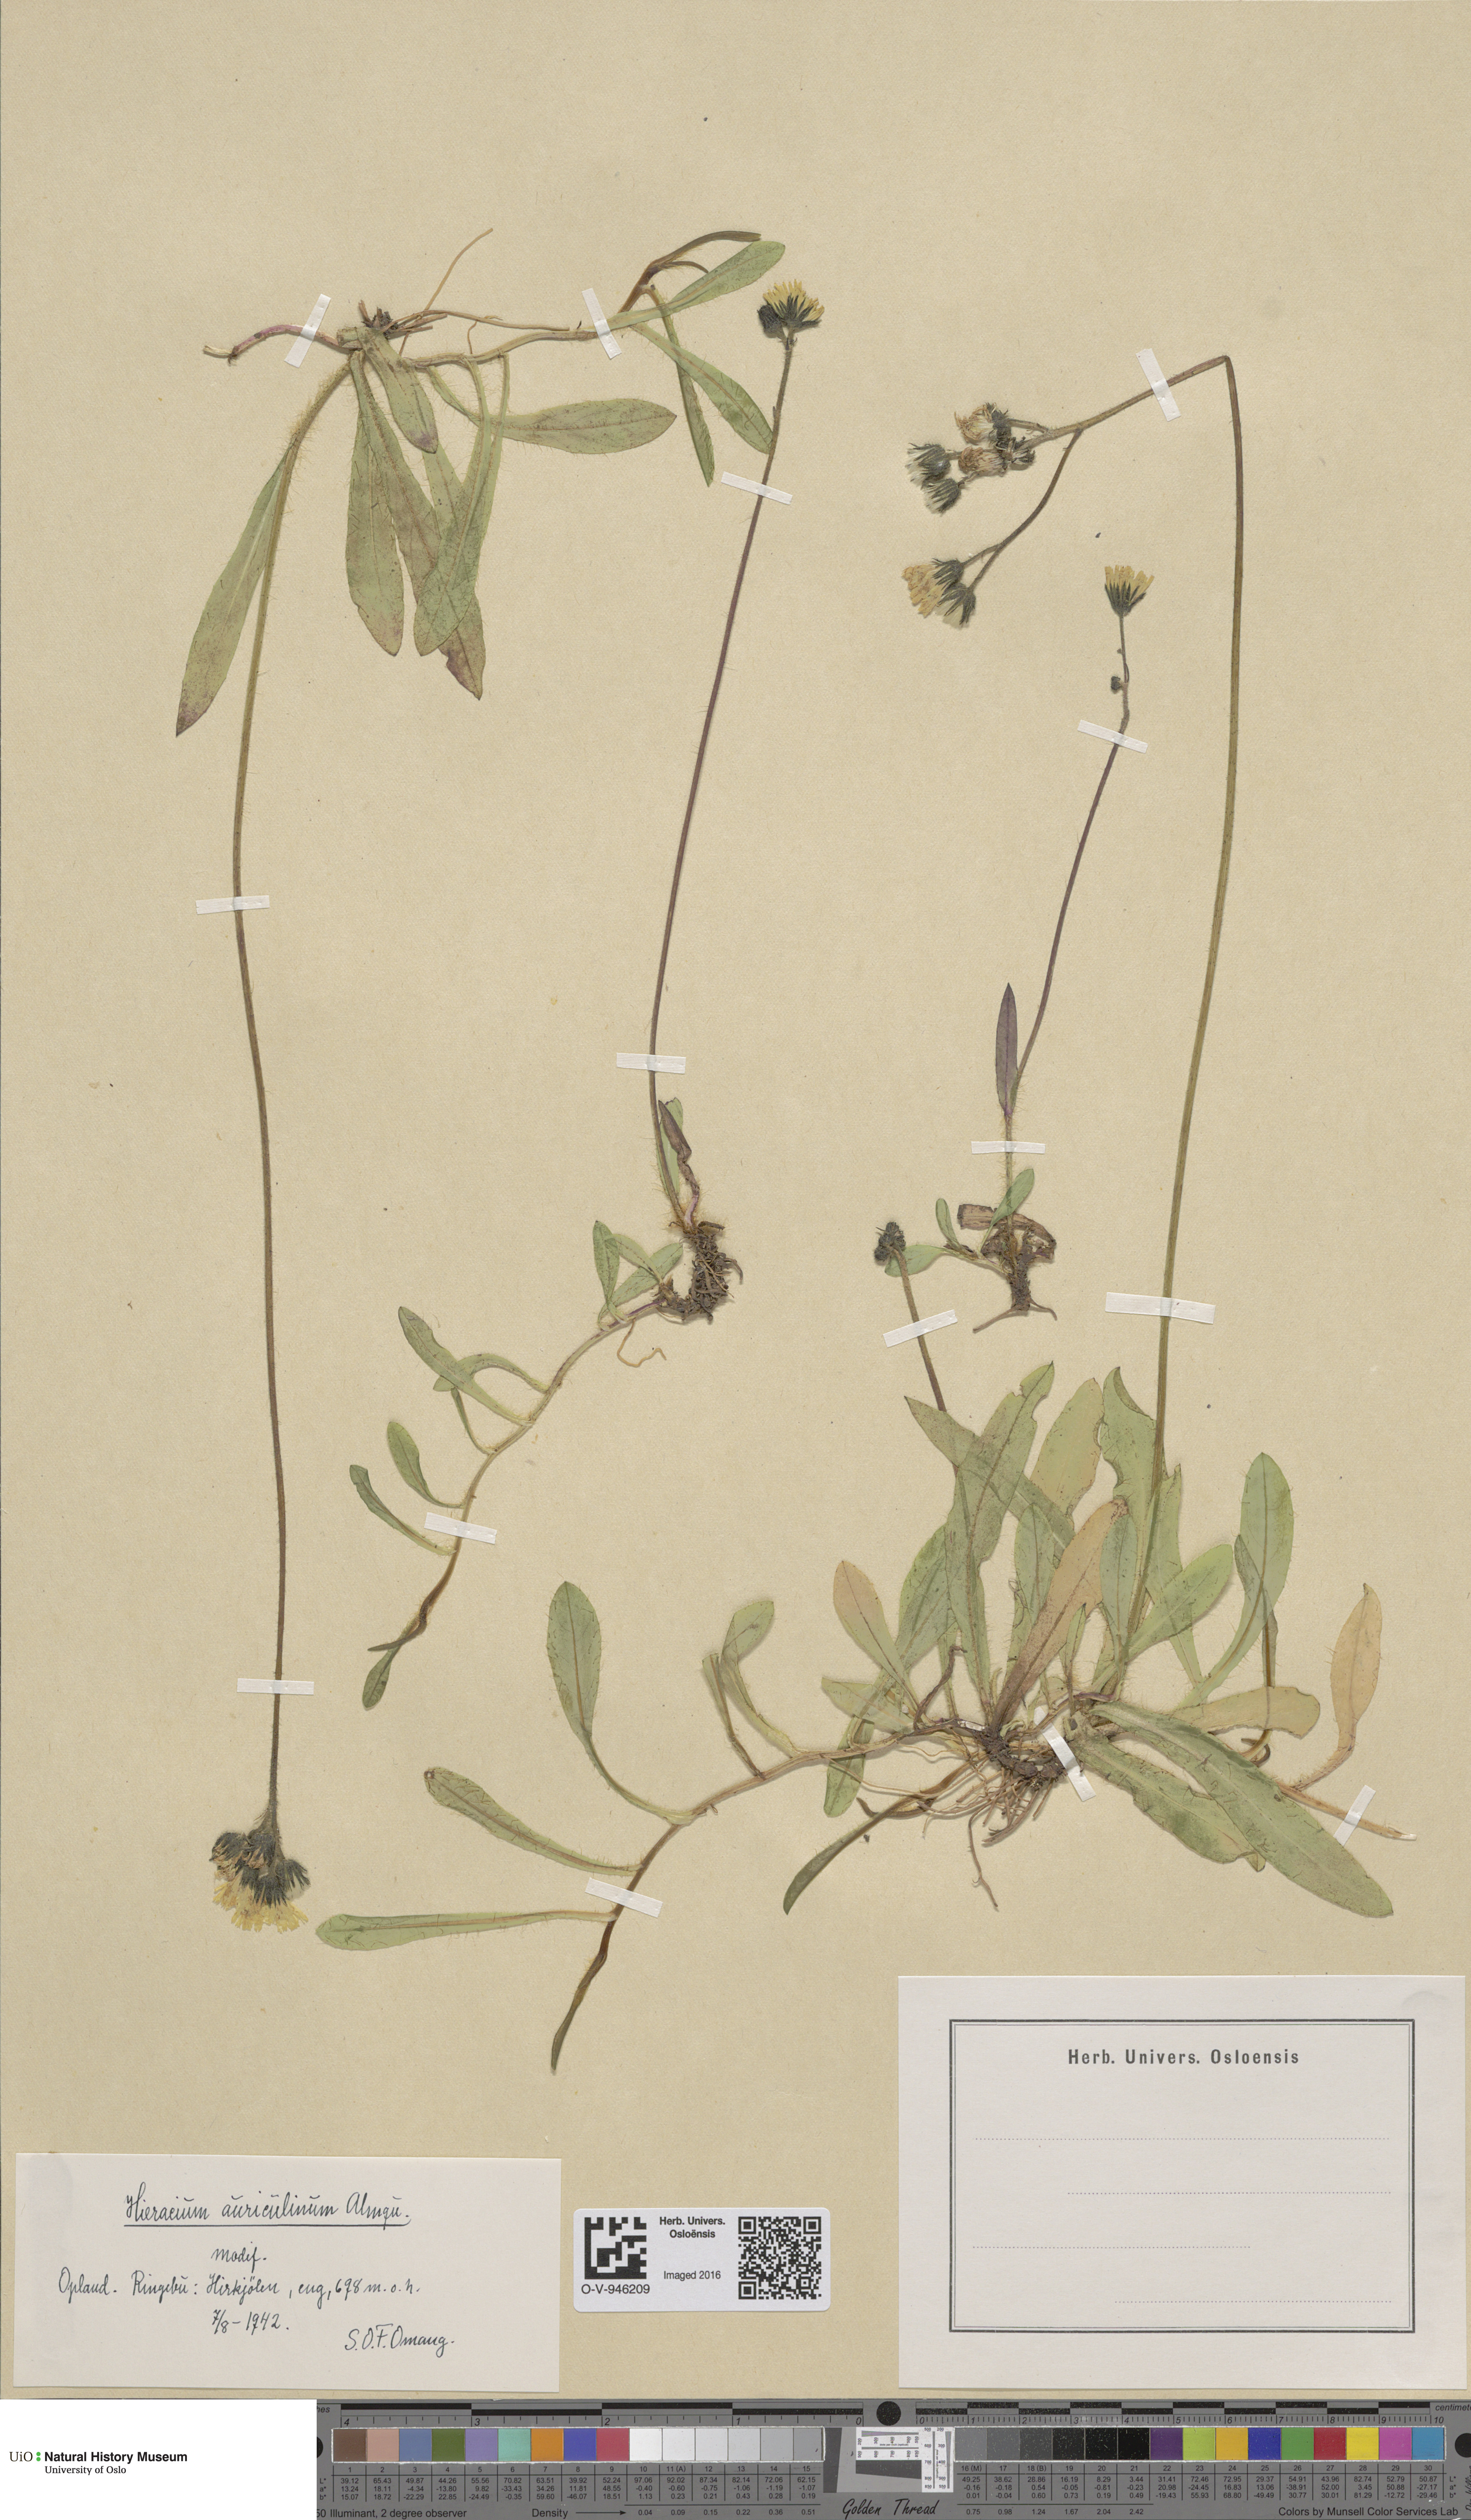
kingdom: Plantae
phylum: Tracheophyta
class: Magnoliopsida
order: Asterales
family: Asteraceae
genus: Pilosella
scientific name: Pilosella dubia
